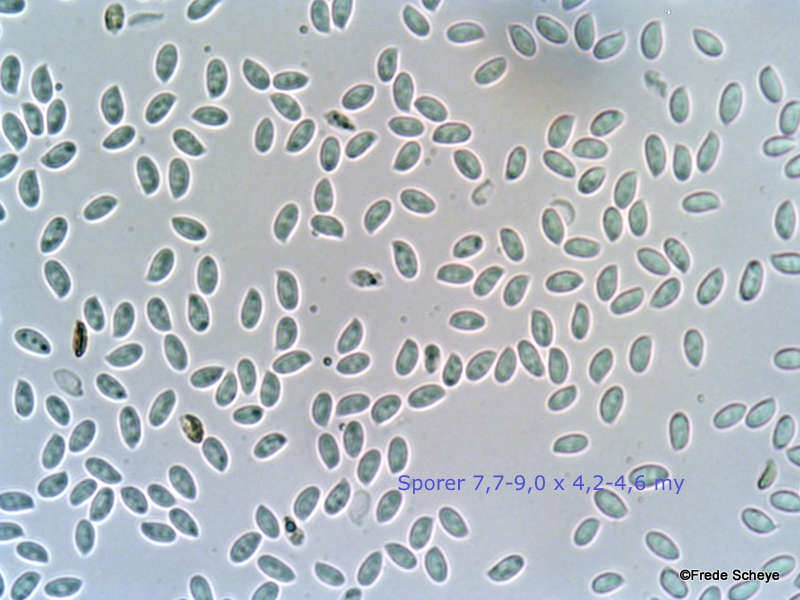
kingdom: Fungi
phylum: Basidiomycota
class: Agaricomycetes
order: Agaricales
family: Physalacriaceae
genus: Flammulina
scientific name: Flammulina velutipes
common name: gul fløjlsfod
